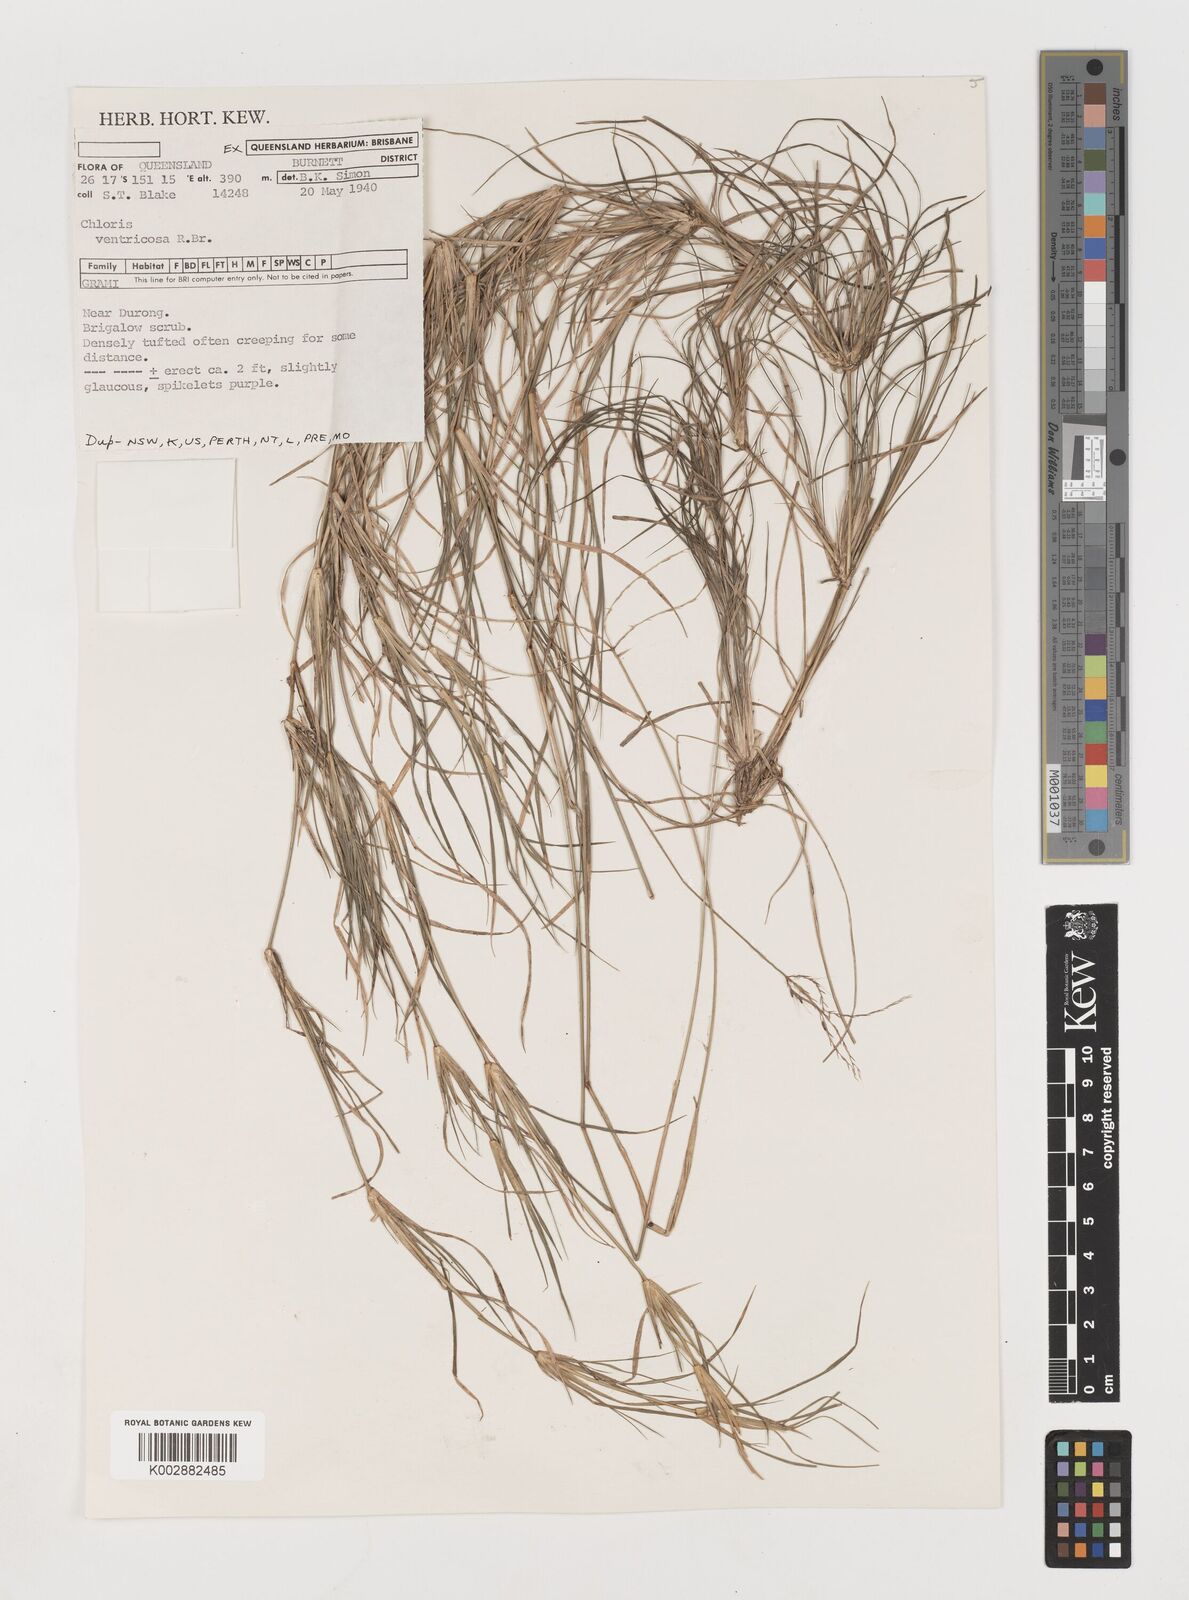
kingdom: Plantae
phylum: Tracheophyta
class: Liliopsida
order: Poales
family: Poaceae
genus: Chloris
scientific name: Chloris ventricosa
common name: Australian windmill grass
